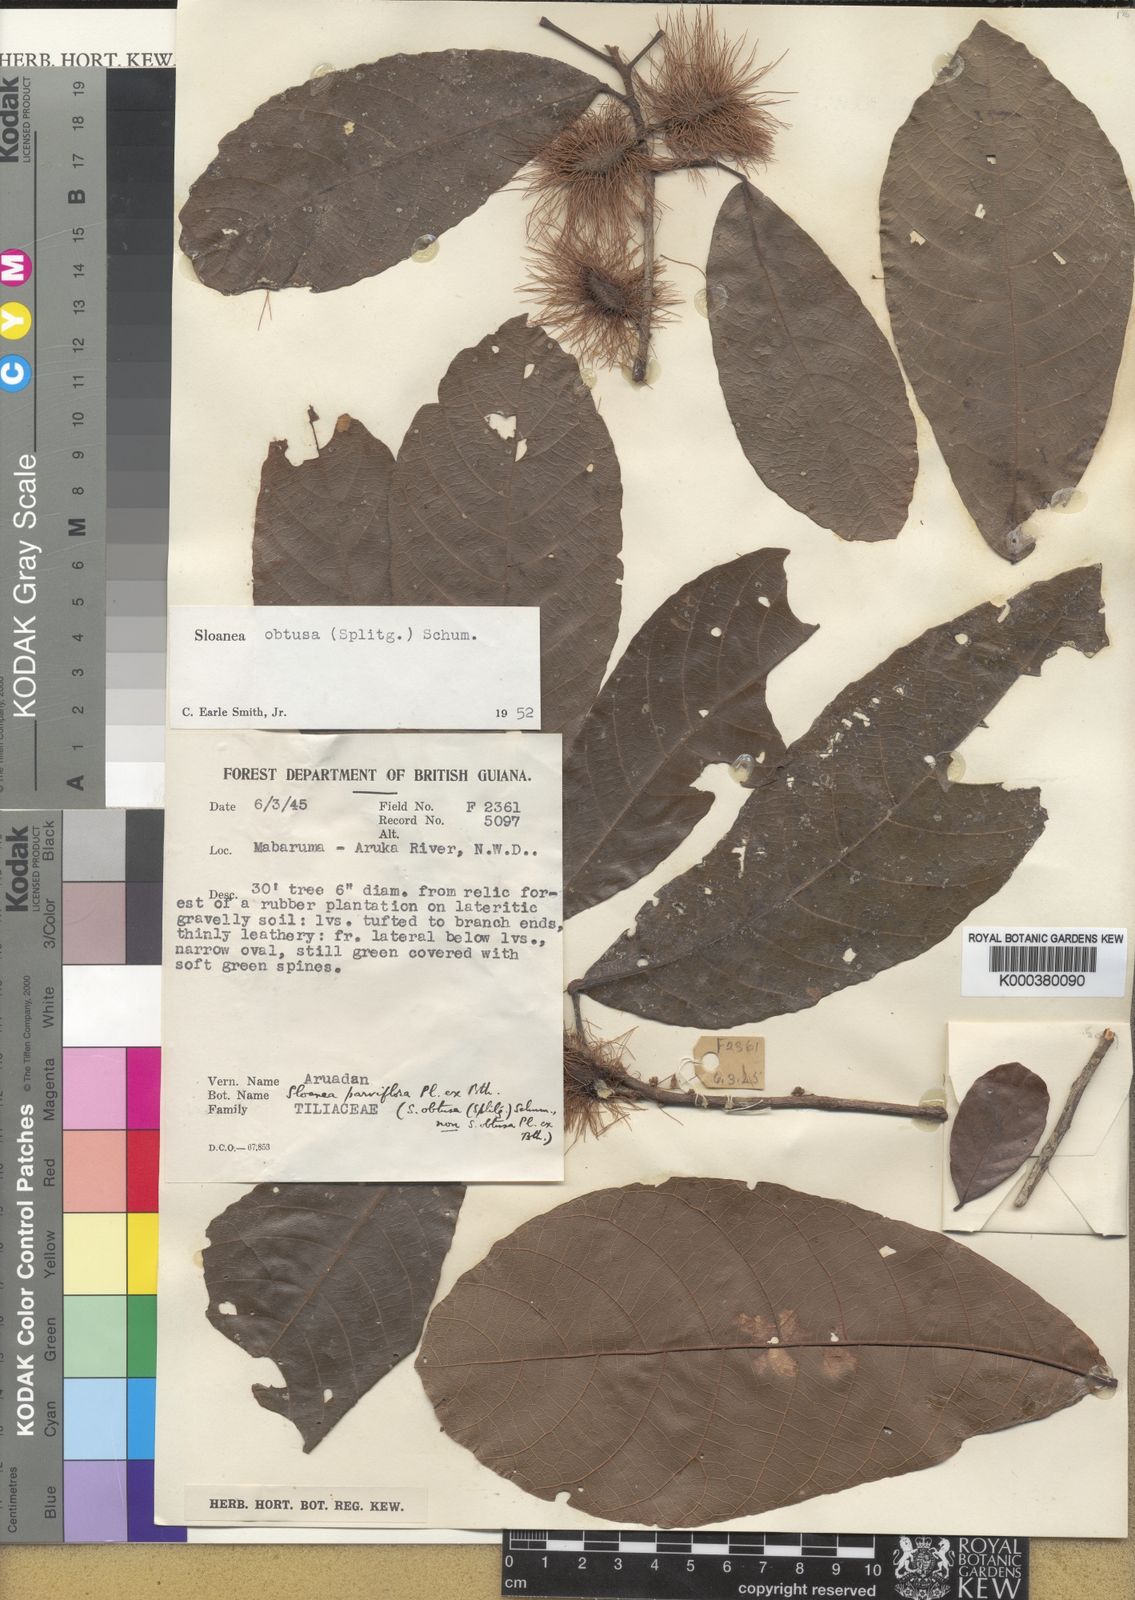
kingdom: Plantae
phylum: Tracheophyta
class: Magnoliopsida
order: Oxalidales
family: Elaeocarpaceae
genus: Sloanea
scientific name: Sloanea kappleriana
